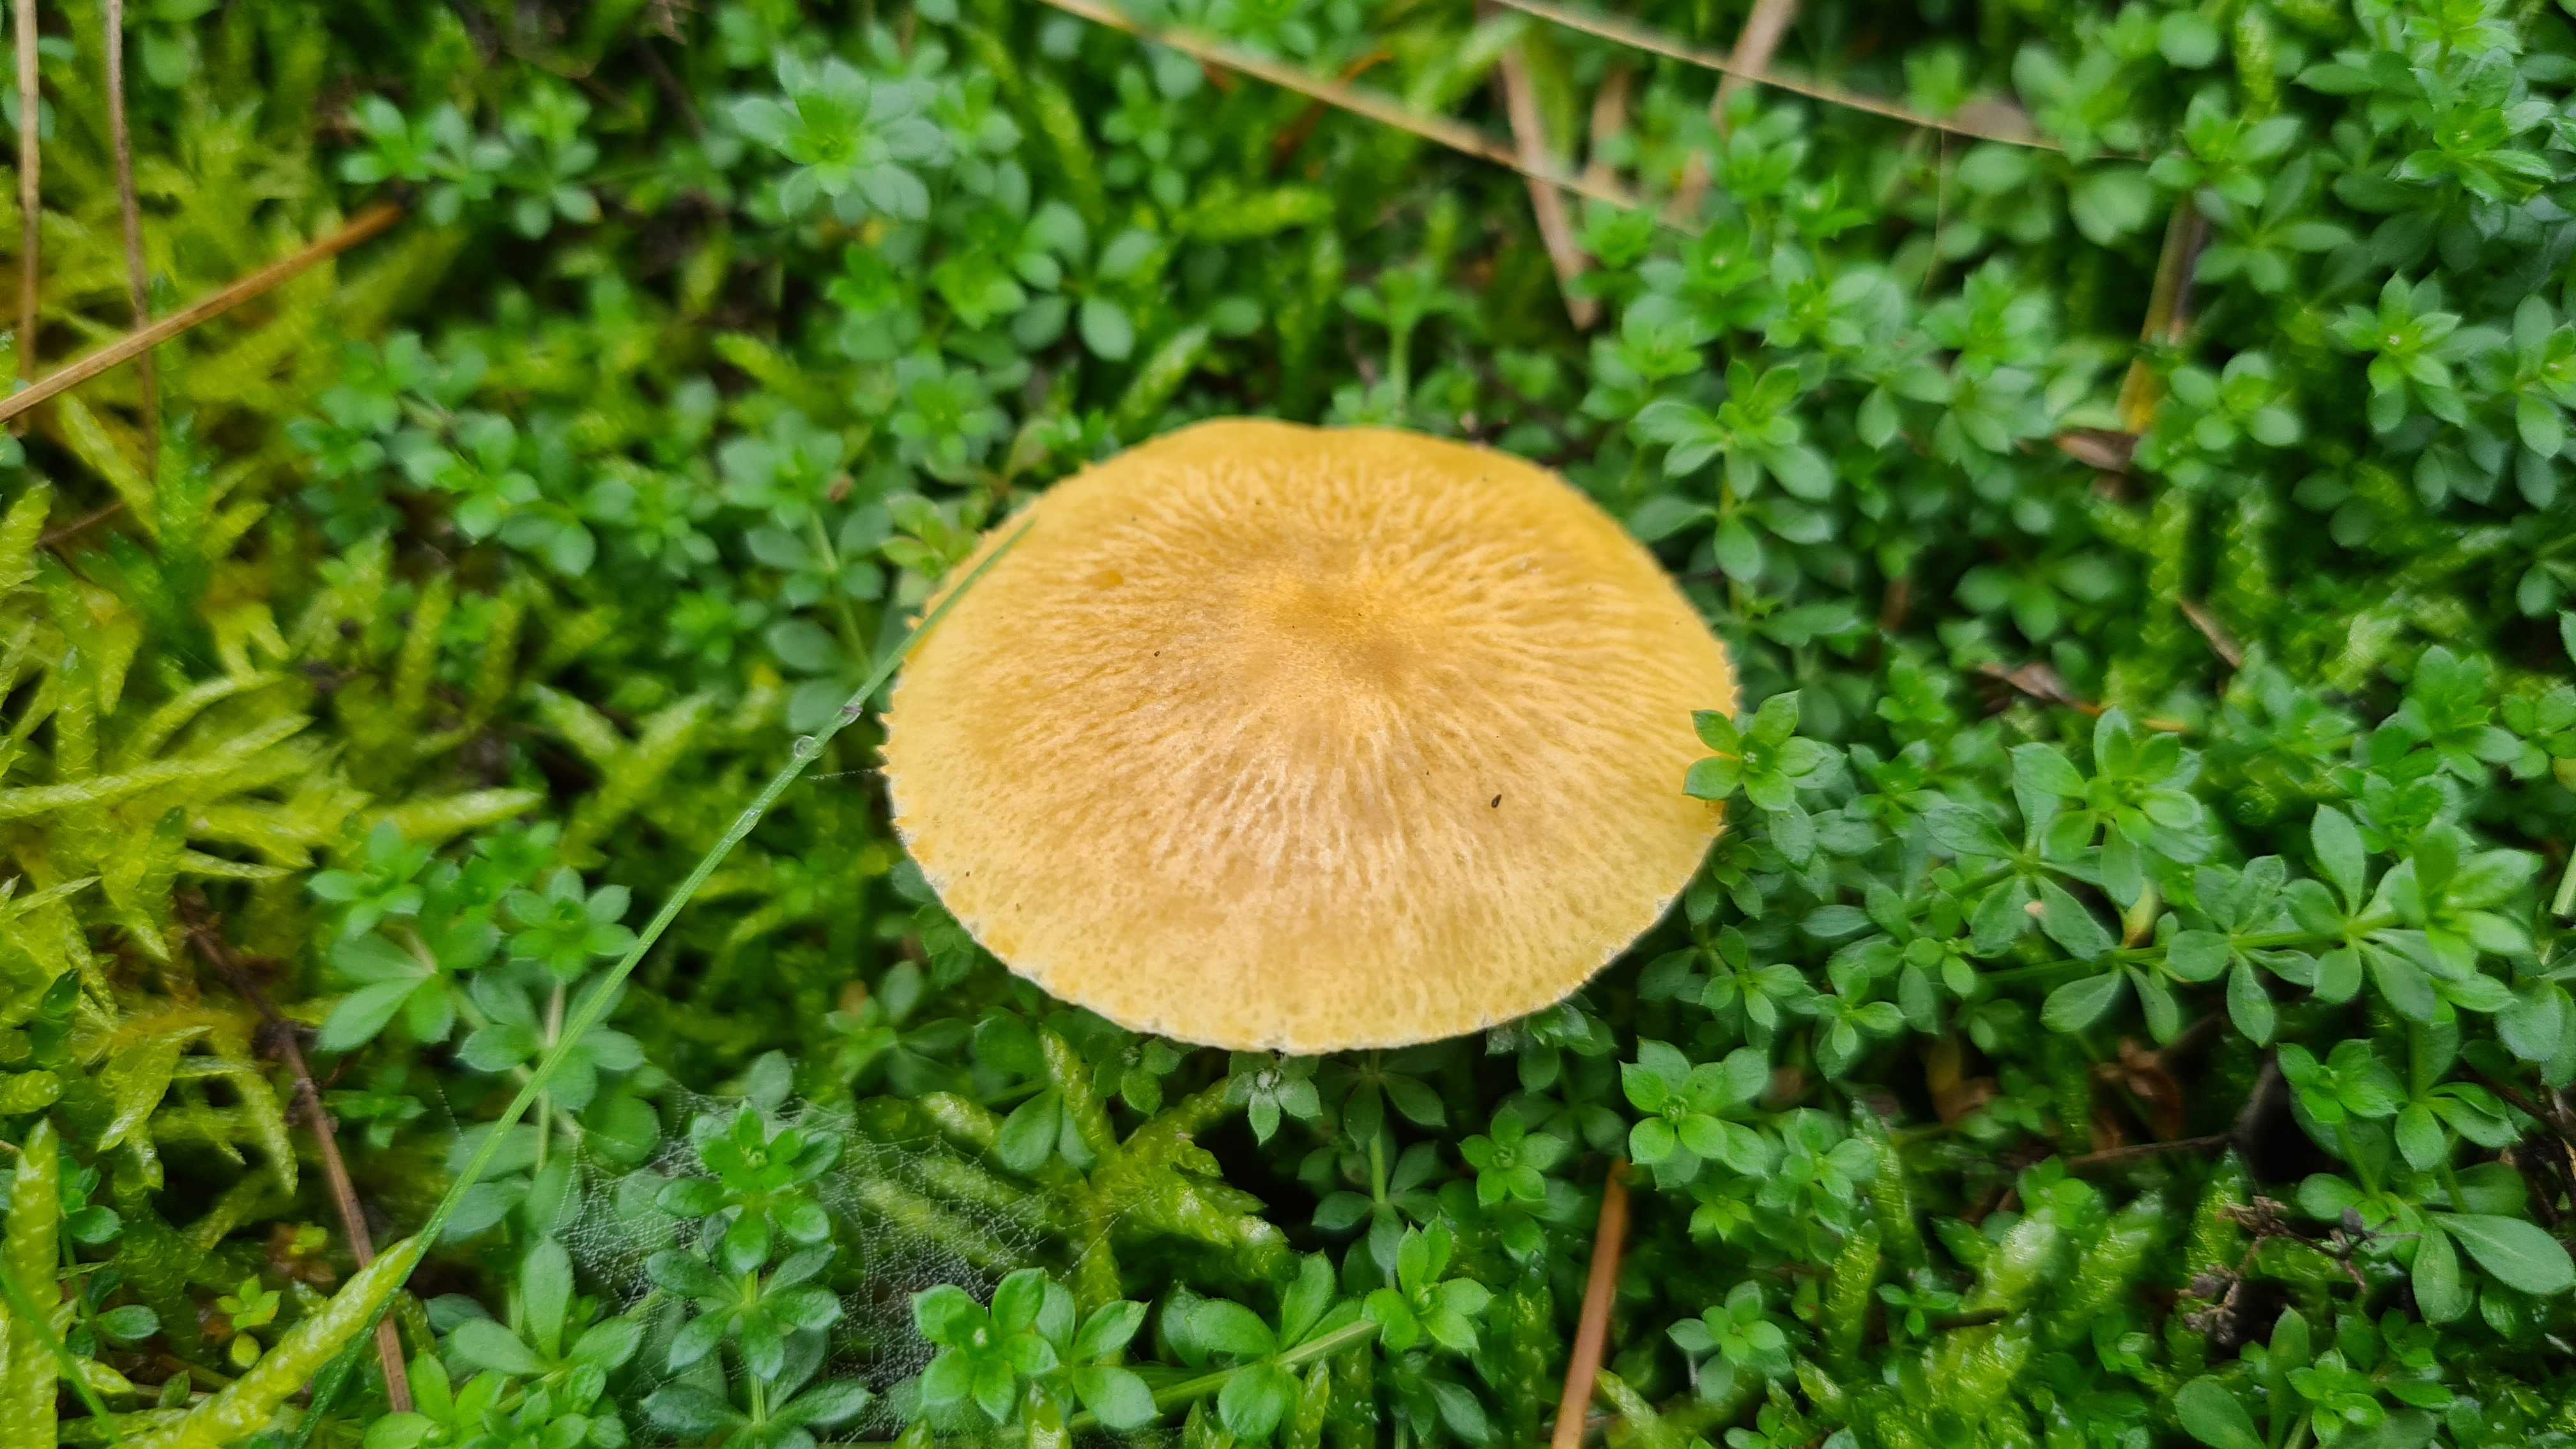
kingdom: Fungi
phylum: Basidiomycota
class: Agaricomycetes
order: Agaricales
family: Tricholomataceae
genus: Cystoderma
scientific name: Cystoderma jasonis
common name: gulkødet grynhat
